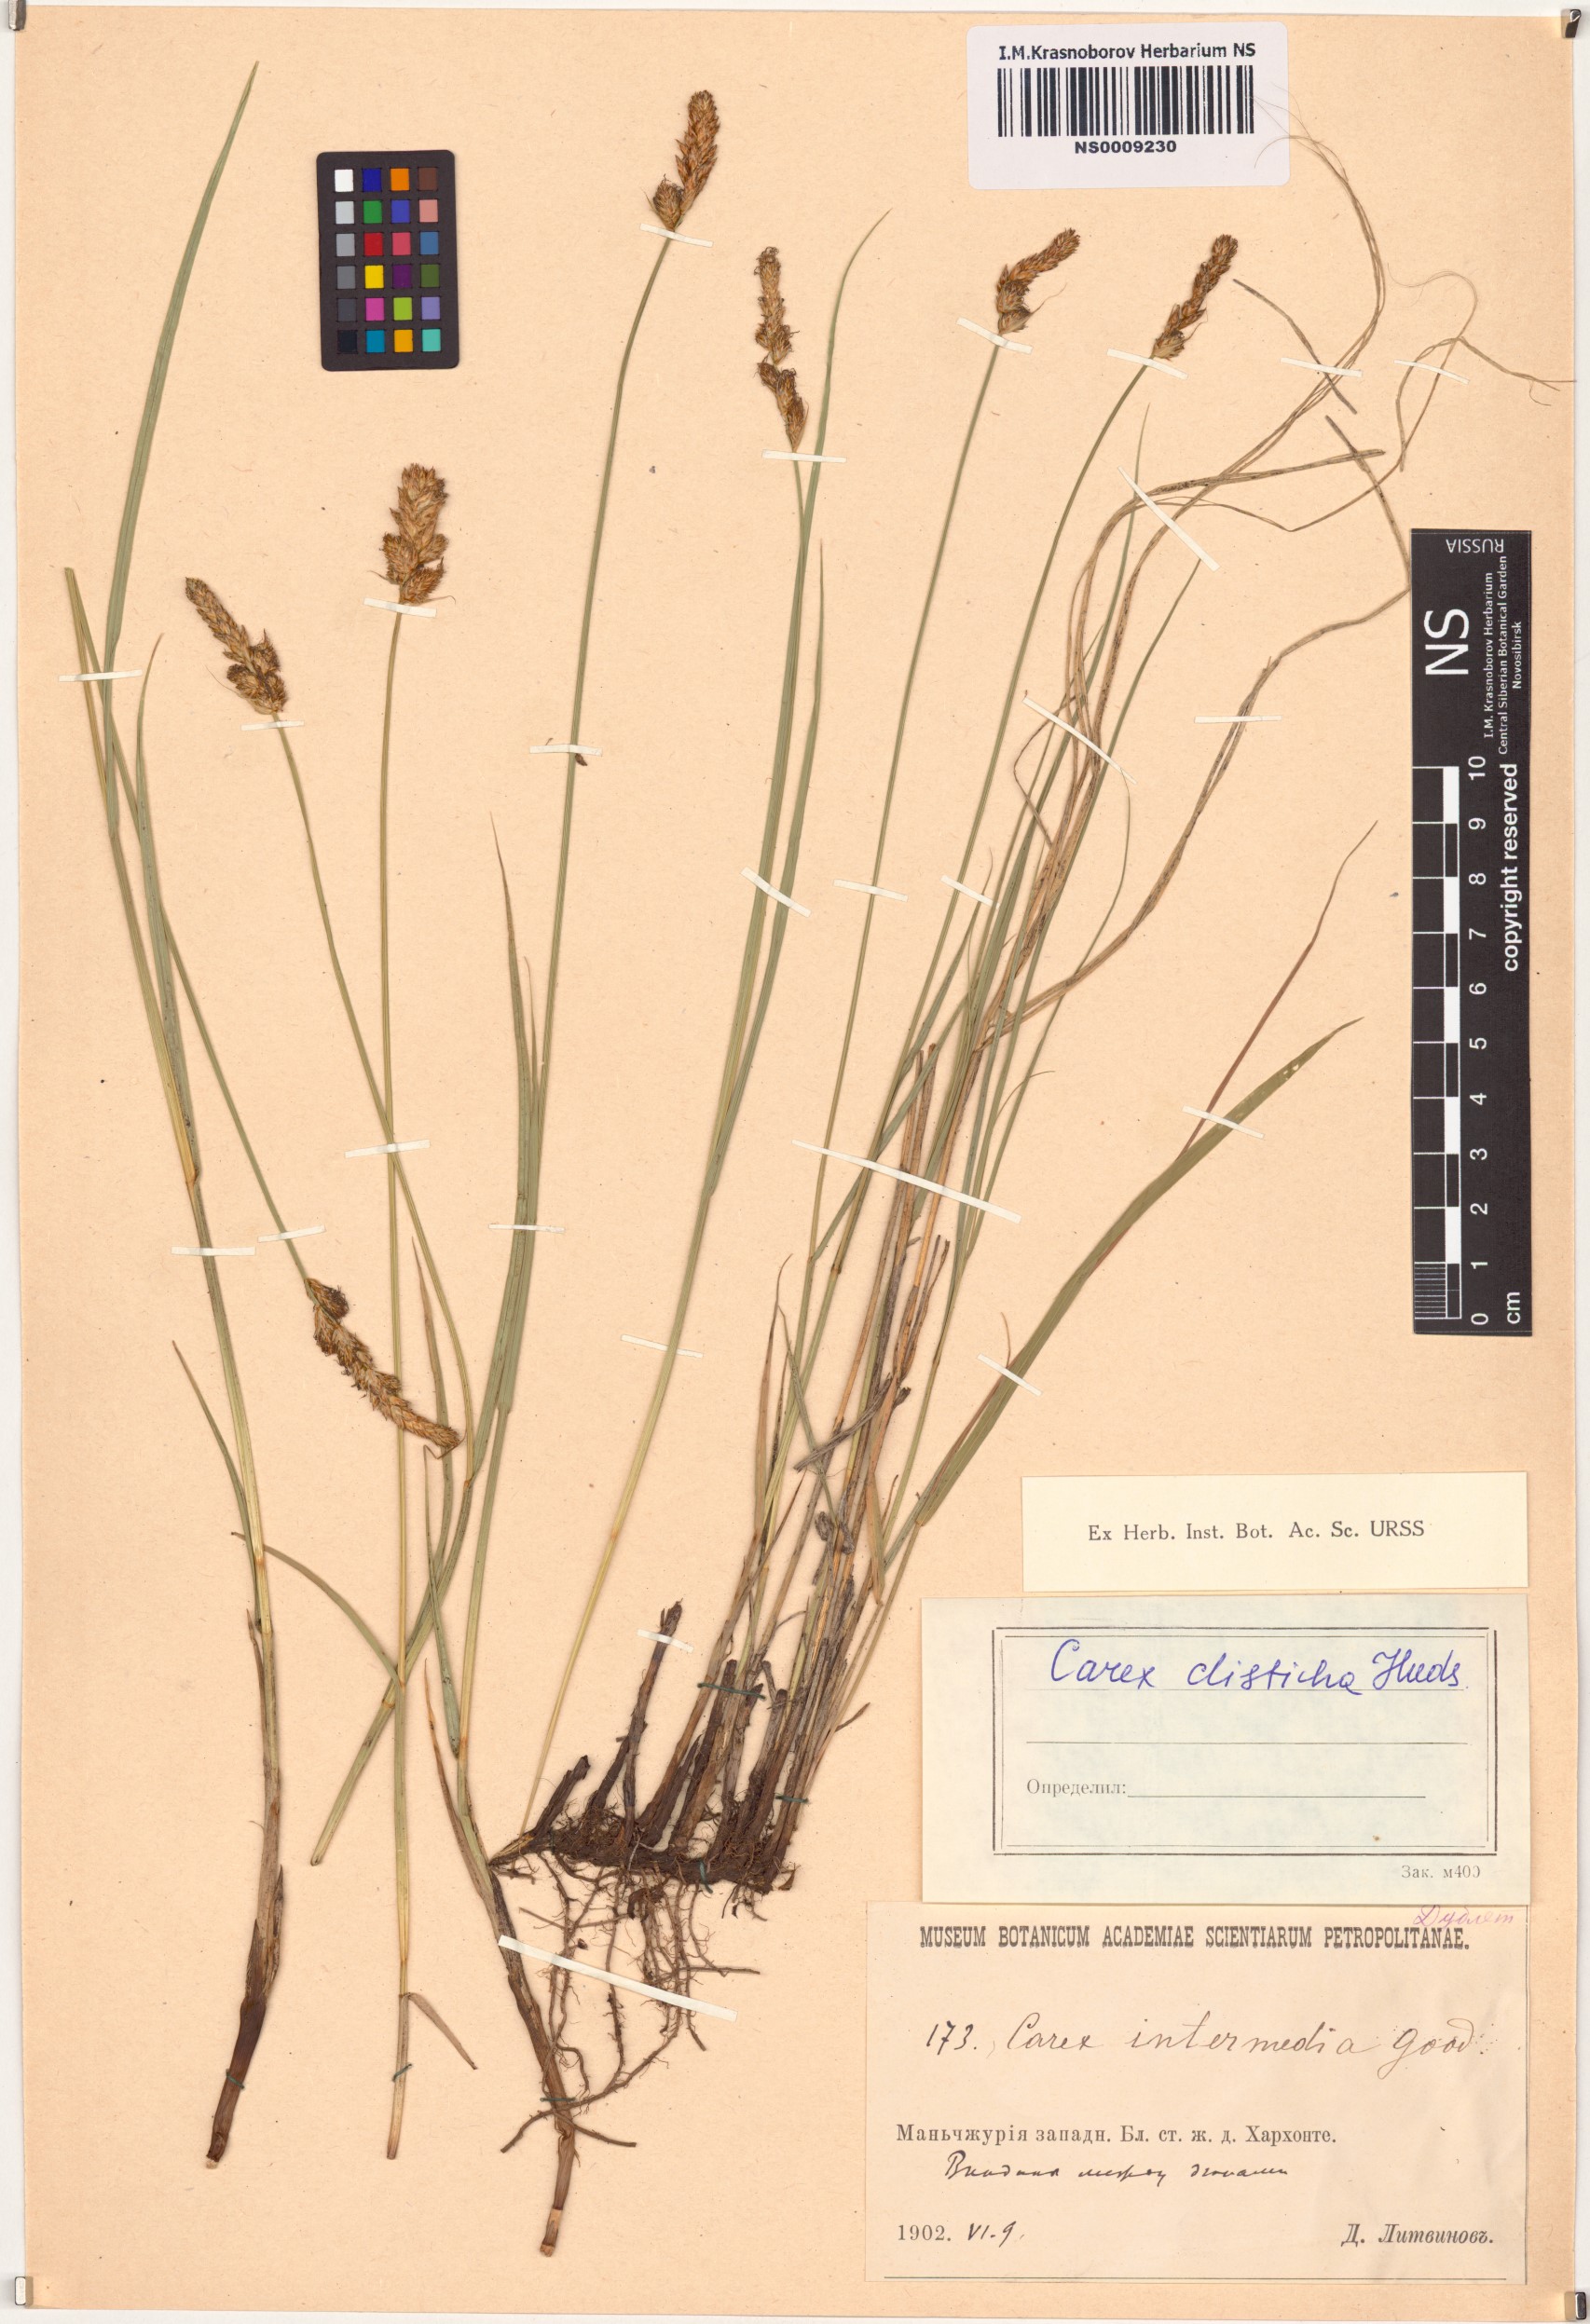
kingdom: Plantae
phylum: Tracheophyta
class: Liliopsida
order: Poales
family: Cyperaceae
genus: Carex
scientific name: Carex disticha
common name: Brown sedge
